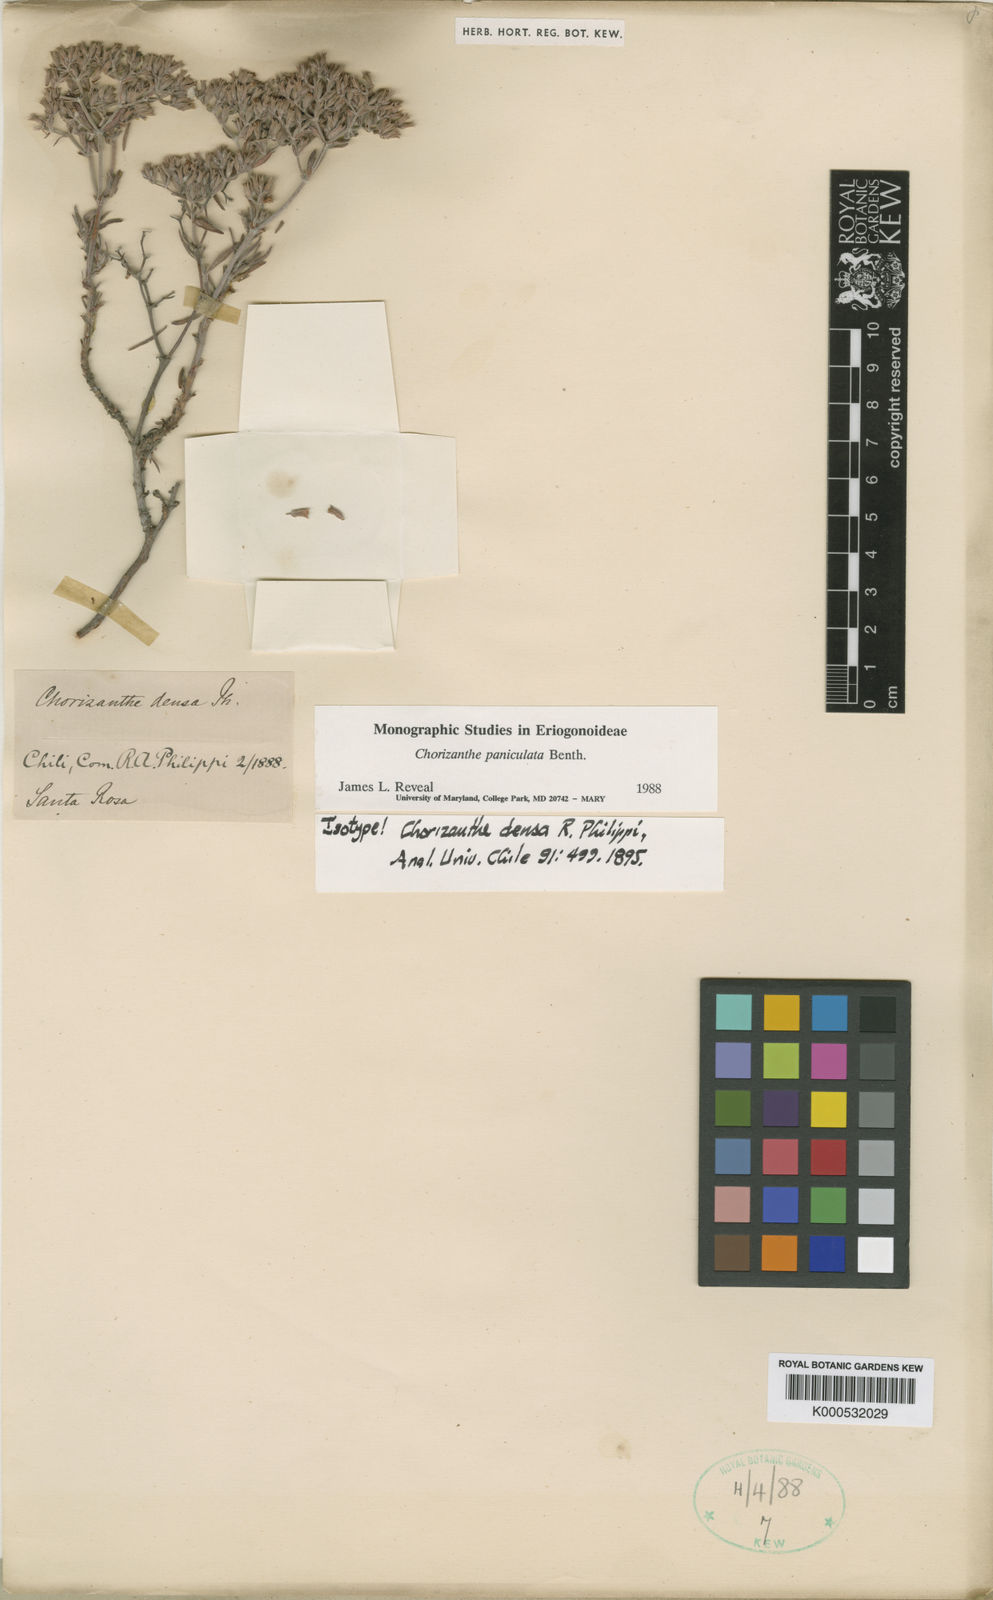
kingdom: Plantae
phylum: Tracheophyta
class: Magnoliopsida
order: Caryophyllales
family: Polygonaceae
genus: Chorizanthe
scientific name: Chorizanthe densa
